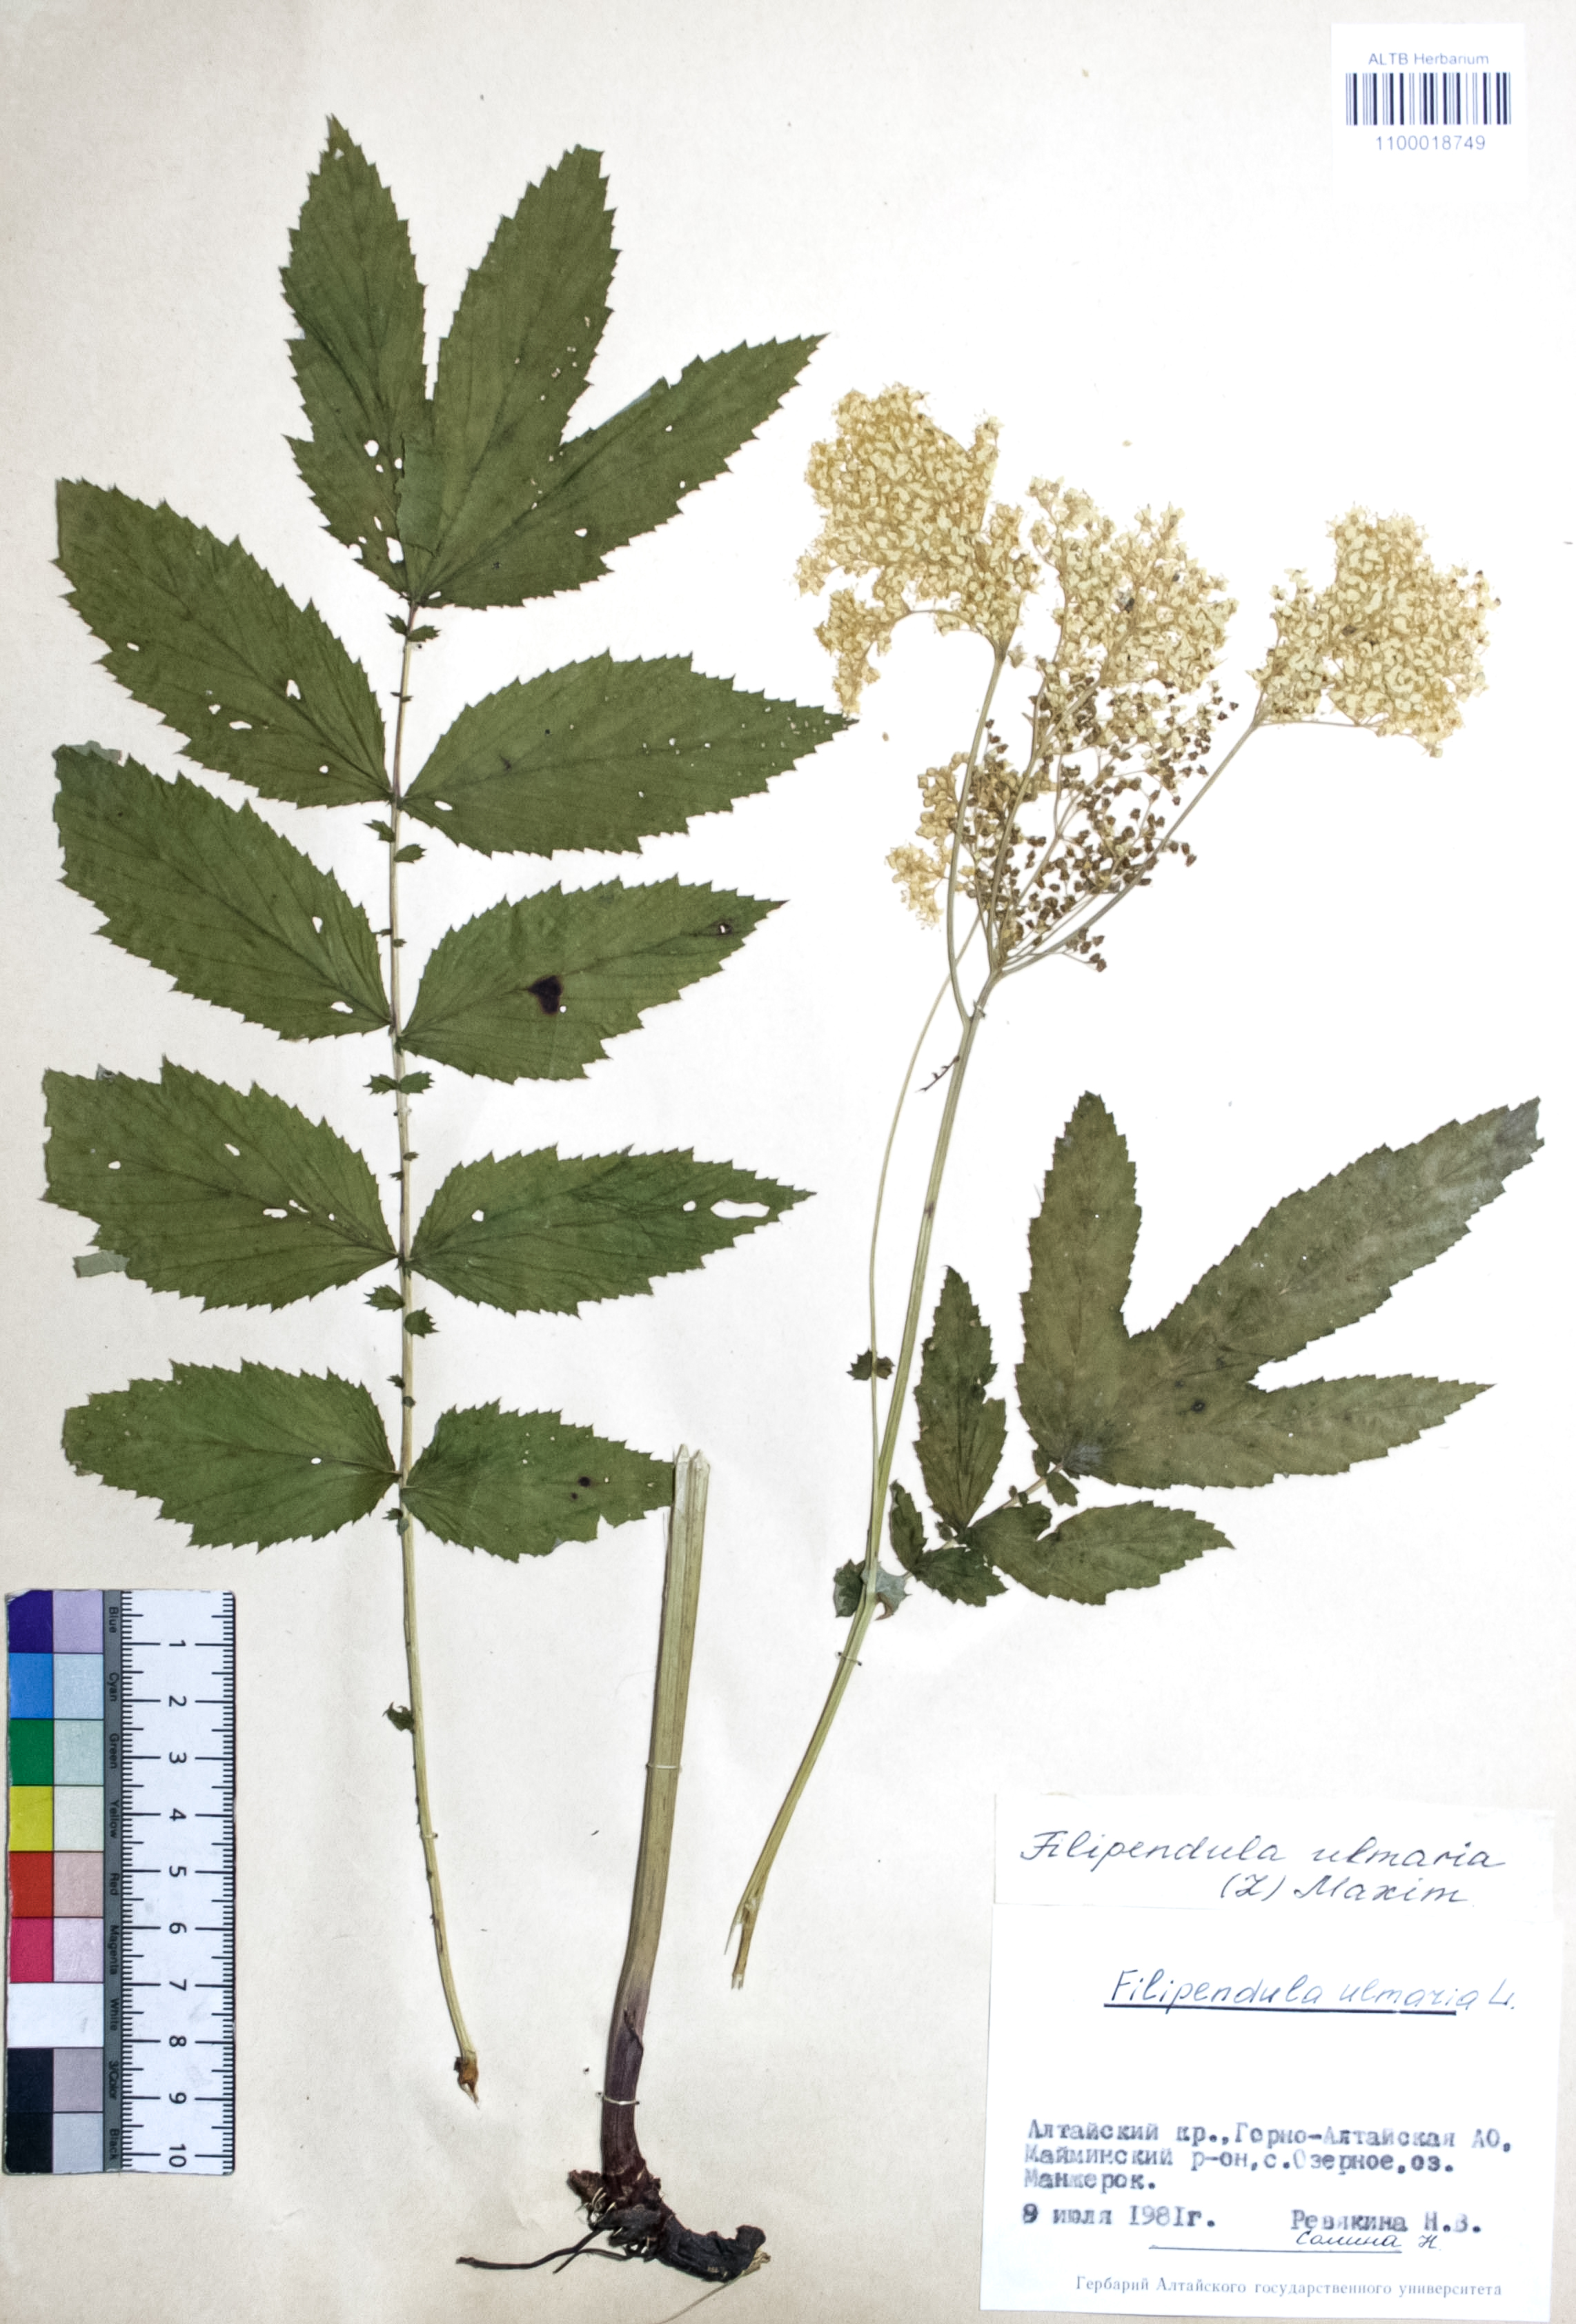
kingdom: Plantae
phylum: Tracheophyta
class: Magnoliopsida
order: Rosales
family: Rosaceae
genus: Filipendula
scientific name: Filipendula ulmaria
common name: Meadowsweet
